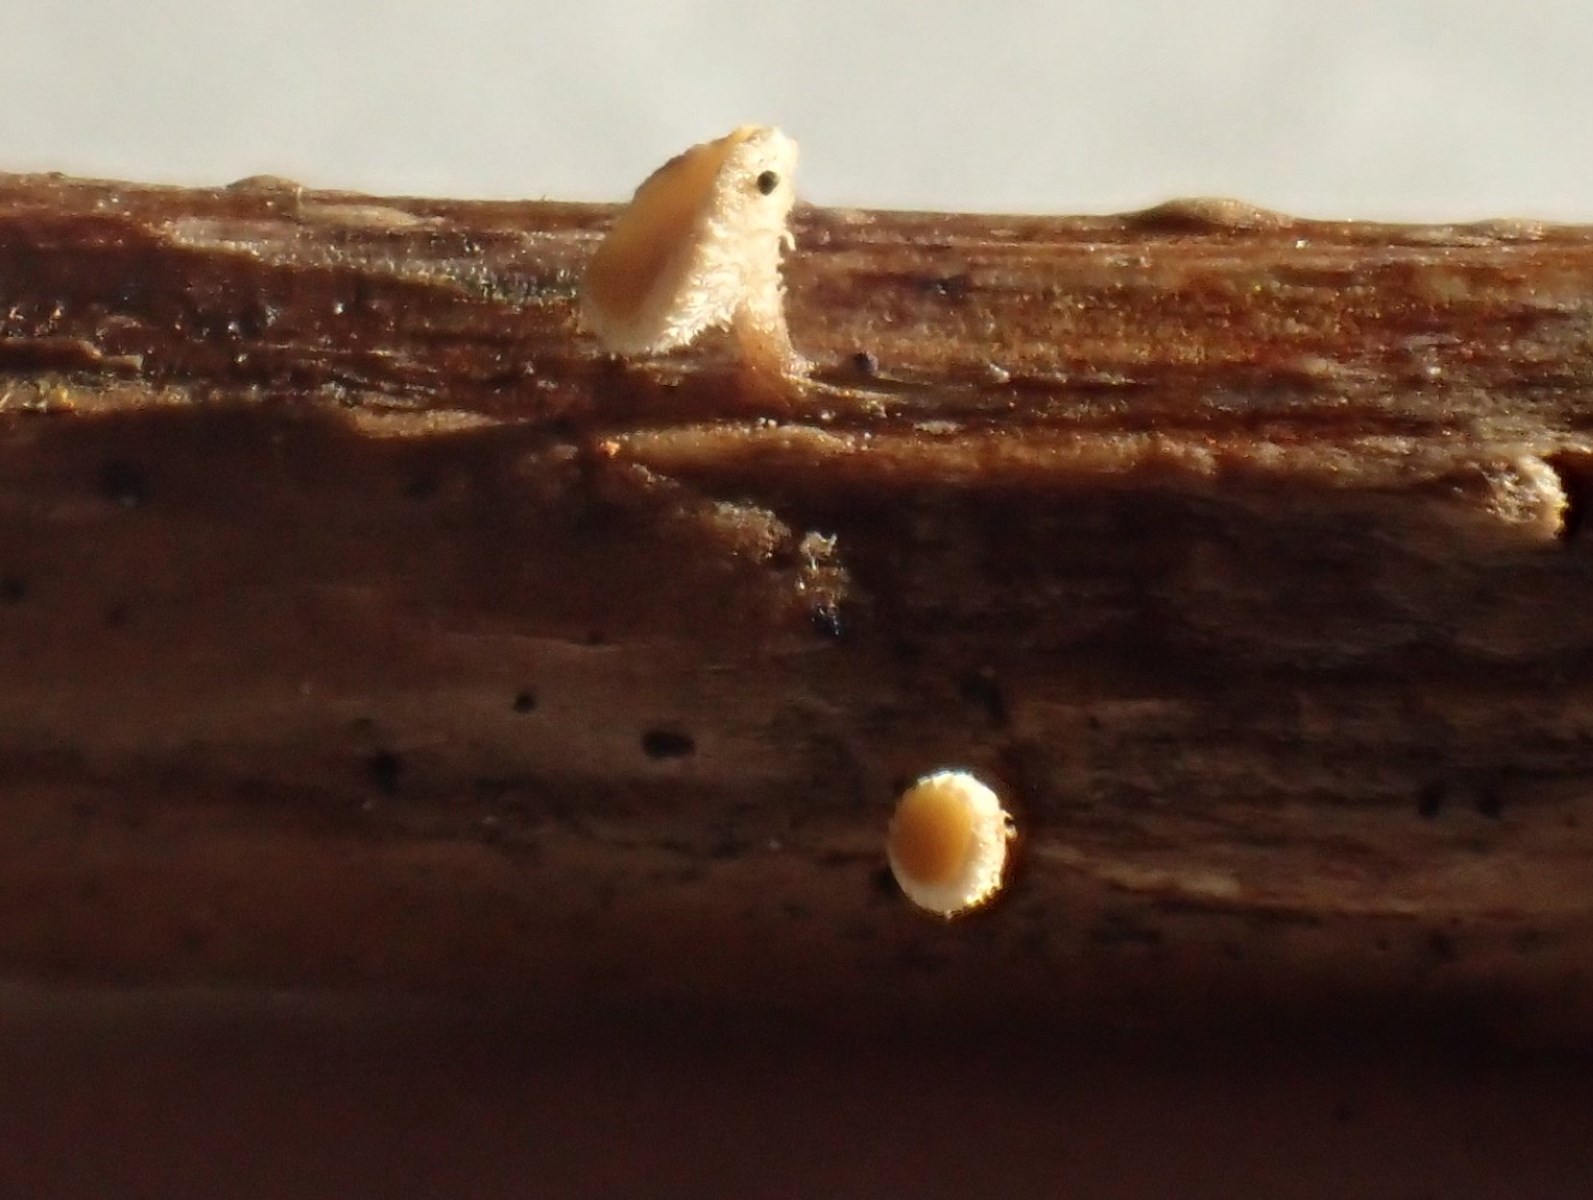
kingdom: Fungi
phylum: Ascomycota
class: Leotiomycetes
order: Helotiales
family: Helotiaceae
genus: Cyathicula
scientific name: Cyathicula
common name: stilkskive
